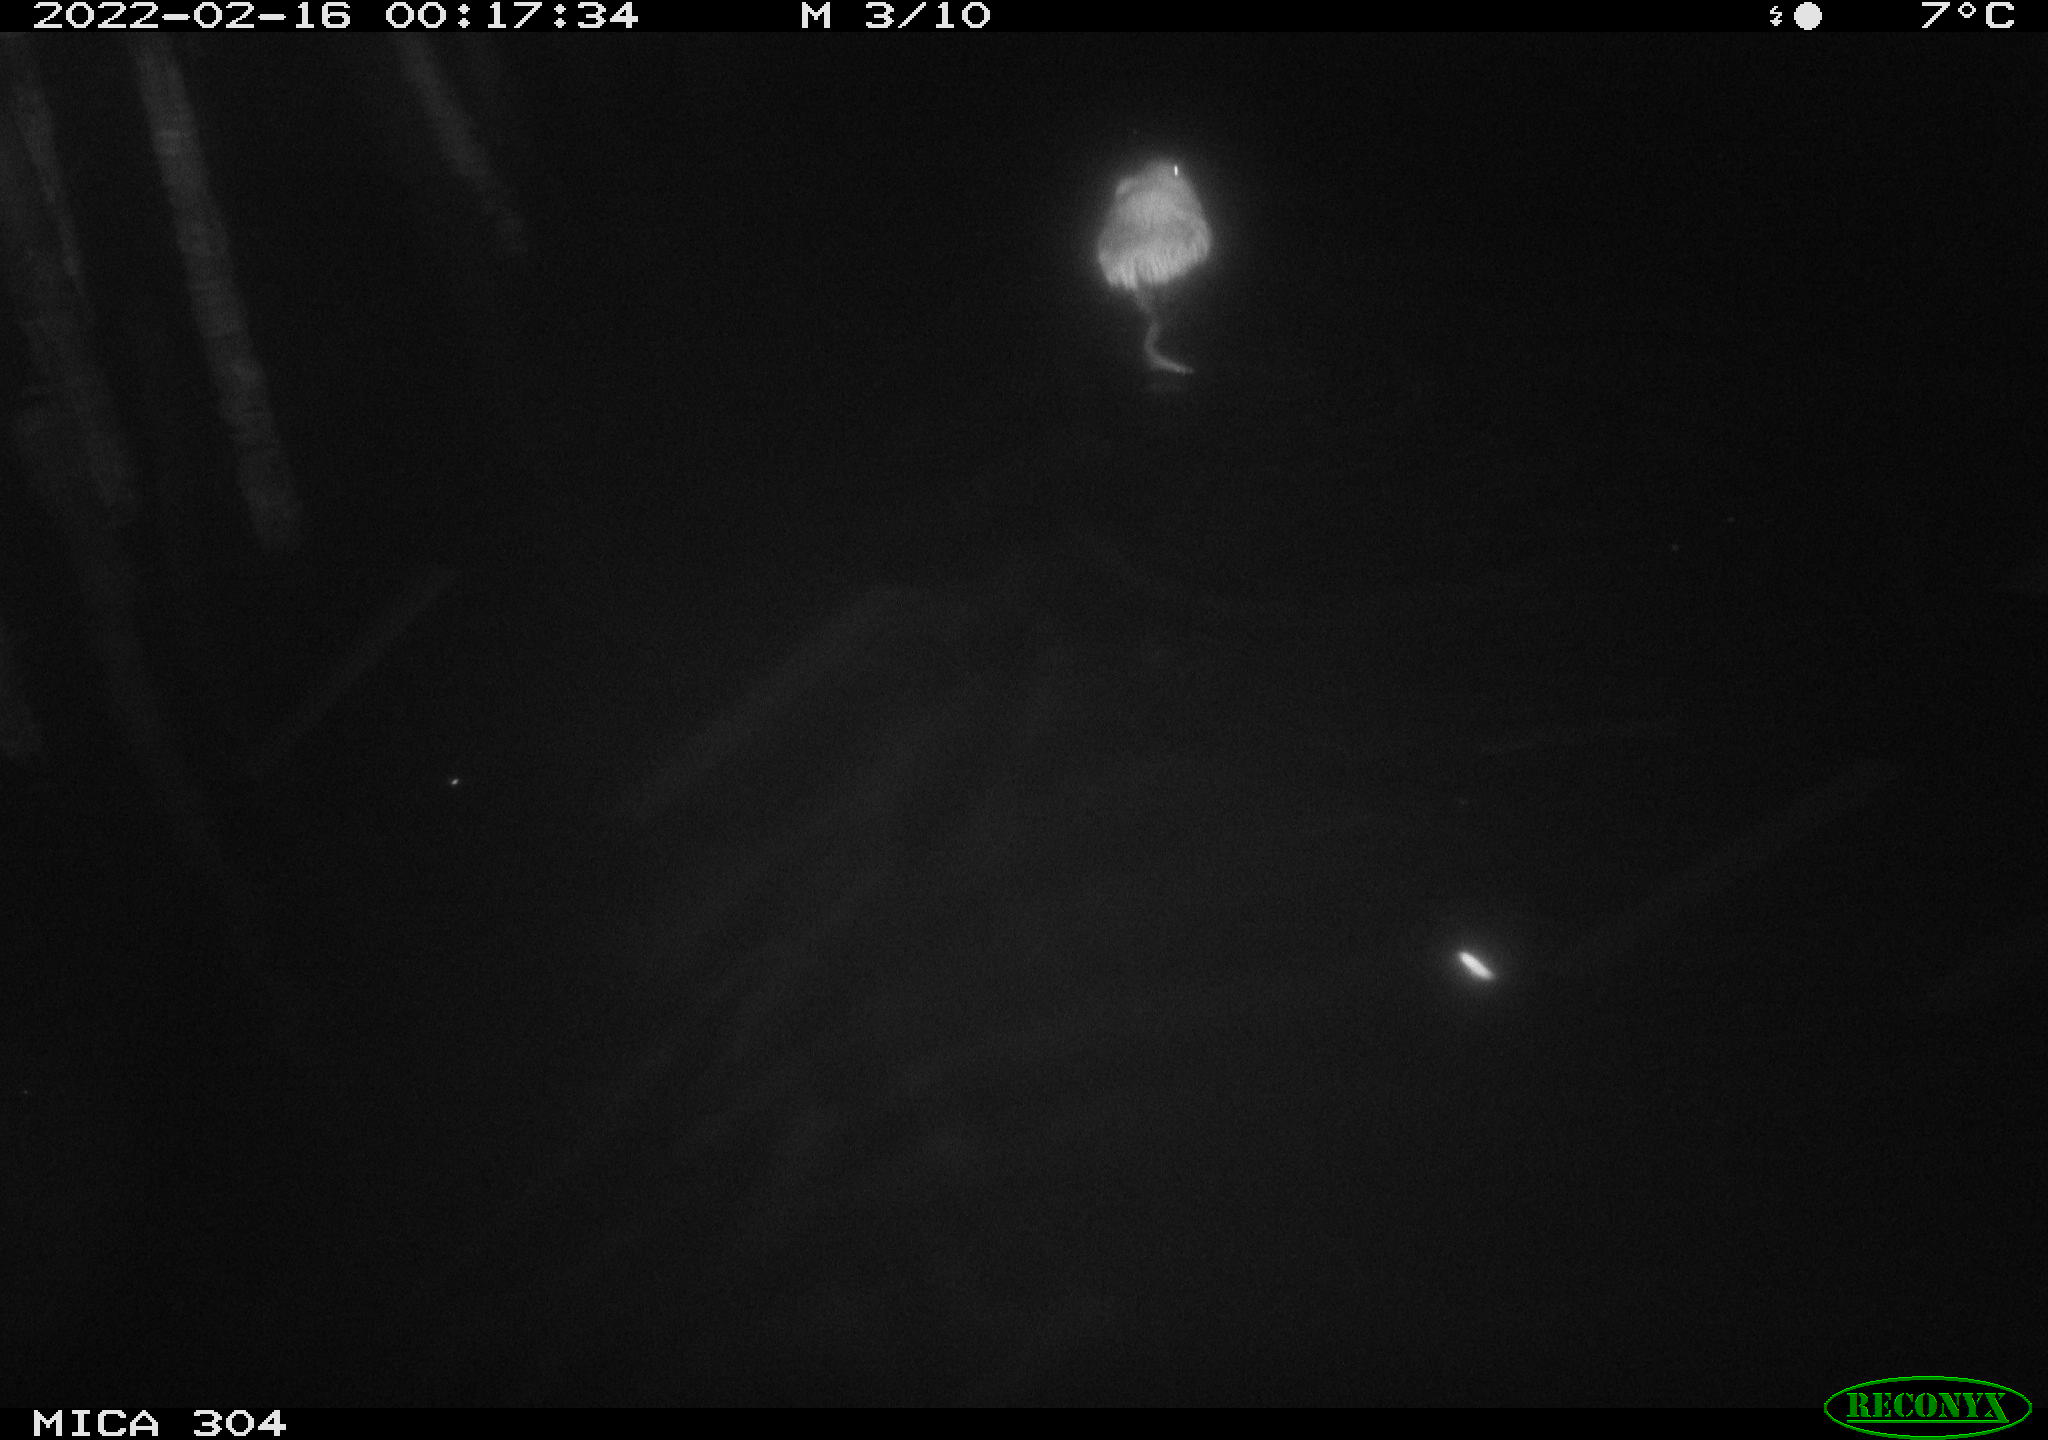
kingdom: Animalia
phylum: Chordata
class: Mammalia
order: Rodentia
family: Cricetidae
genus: Ondatra
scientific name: Ondatra zibethicus
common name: Muskrat
